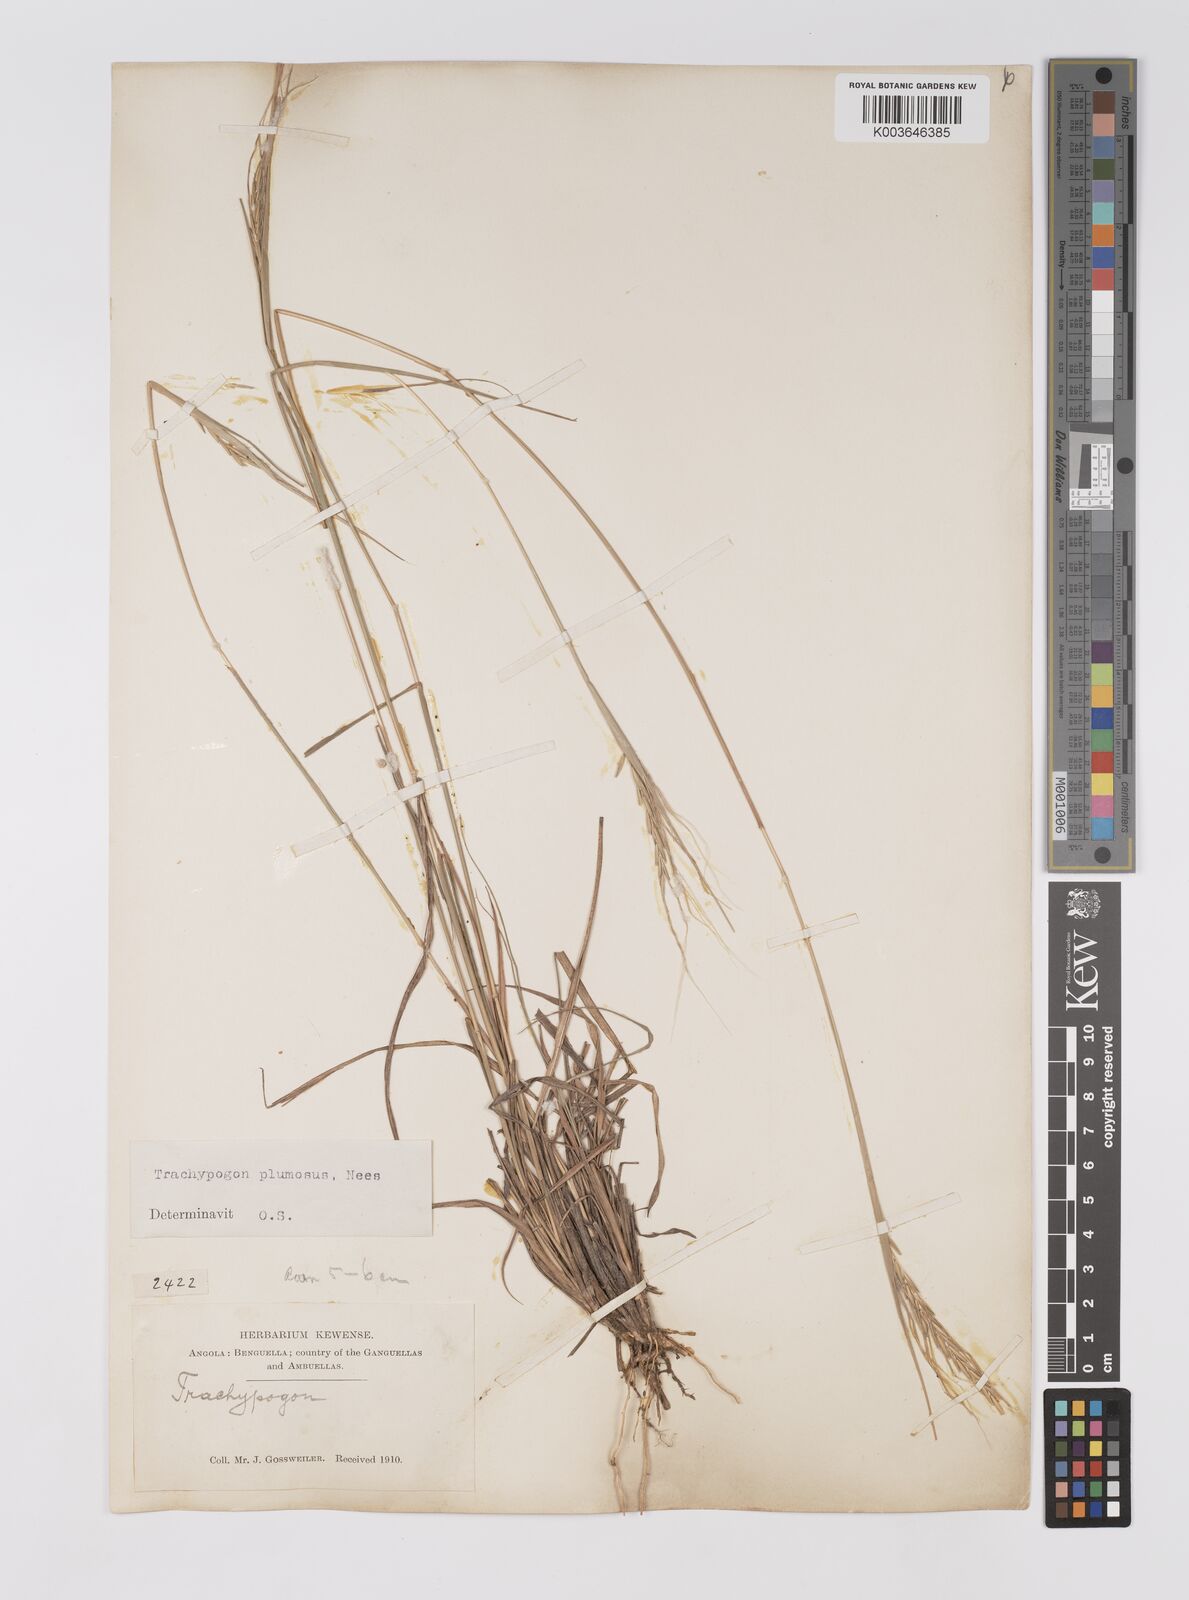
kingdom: Plantae
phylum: Tracheophyta
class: Liliopsida
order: Poales
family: Poaceae
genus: Trachypogon
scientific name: Trachypogon spicatus
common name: Crinkle-awn
